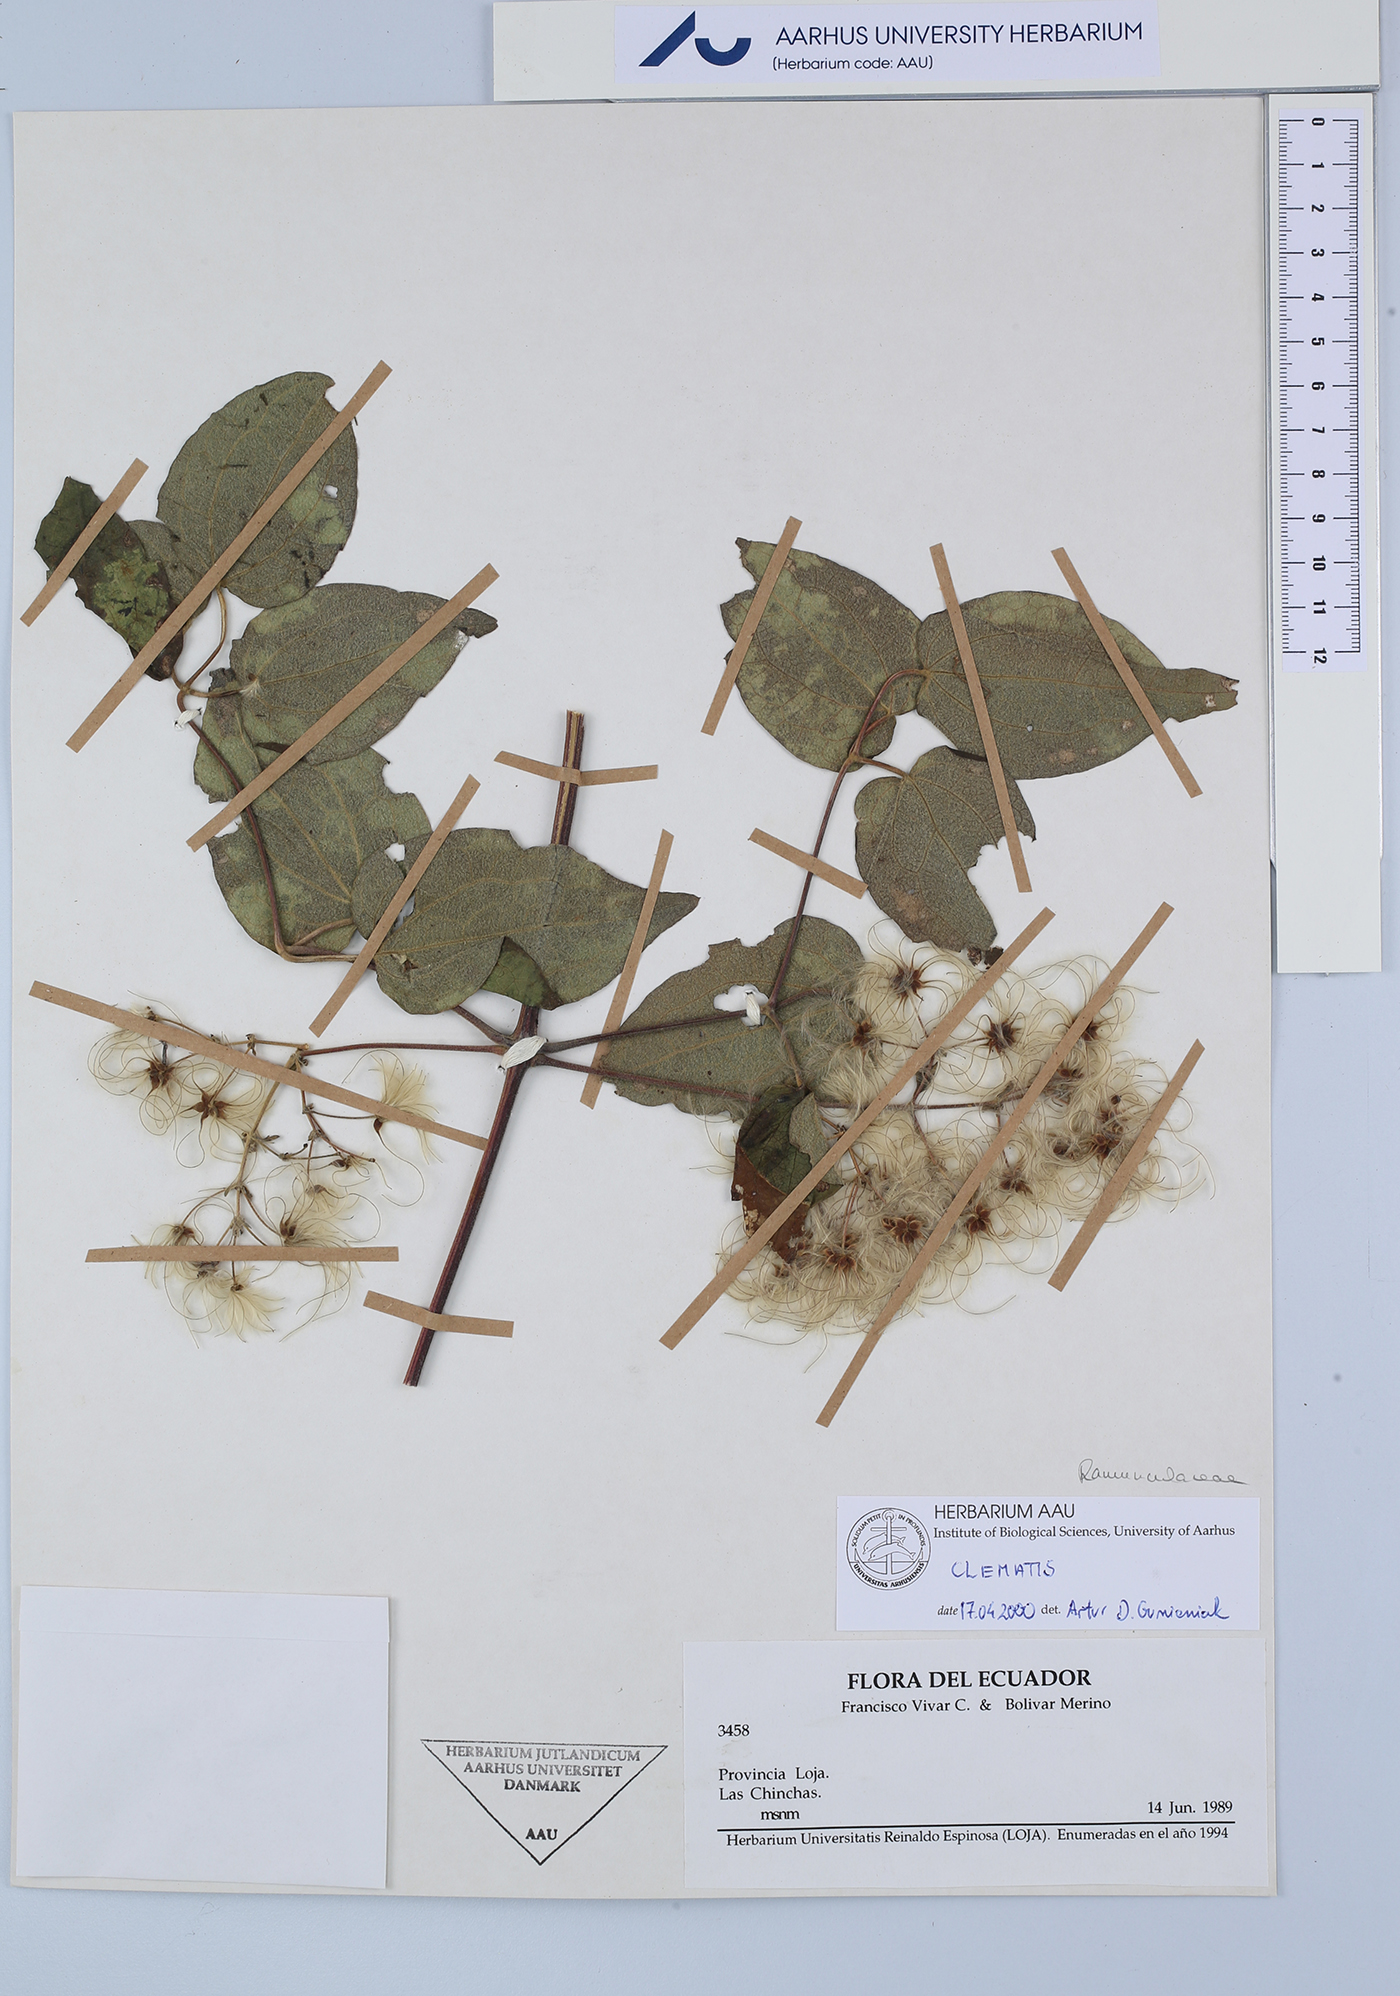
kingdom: Plantae
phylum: Tracheophyta
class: Magnoliopsida
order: Ranunculales
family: Ranunculaceae
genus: Clematis
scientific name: Clematis
